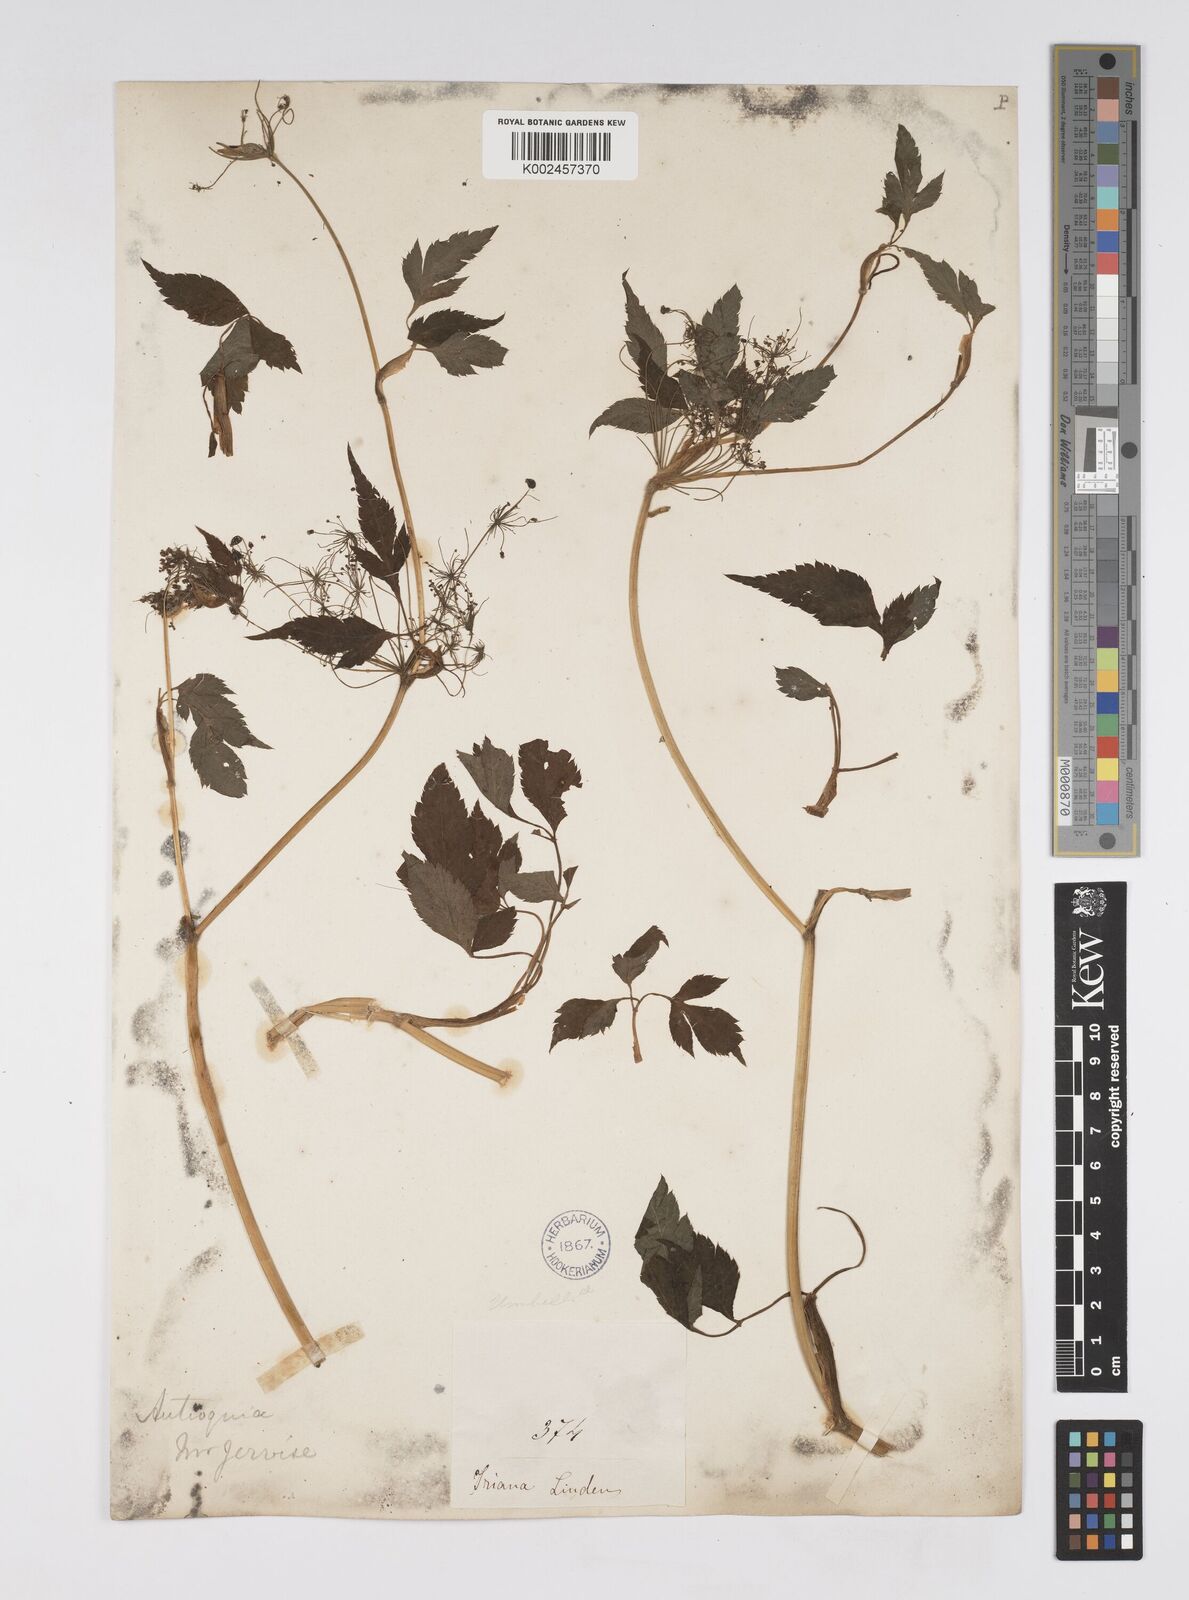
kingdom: Plantae
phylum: Tracheophyta
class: Magnoliopsida
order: Apiales
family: Apiaceae
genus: Neonelsonia
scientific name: Neonelsonia acuminata
